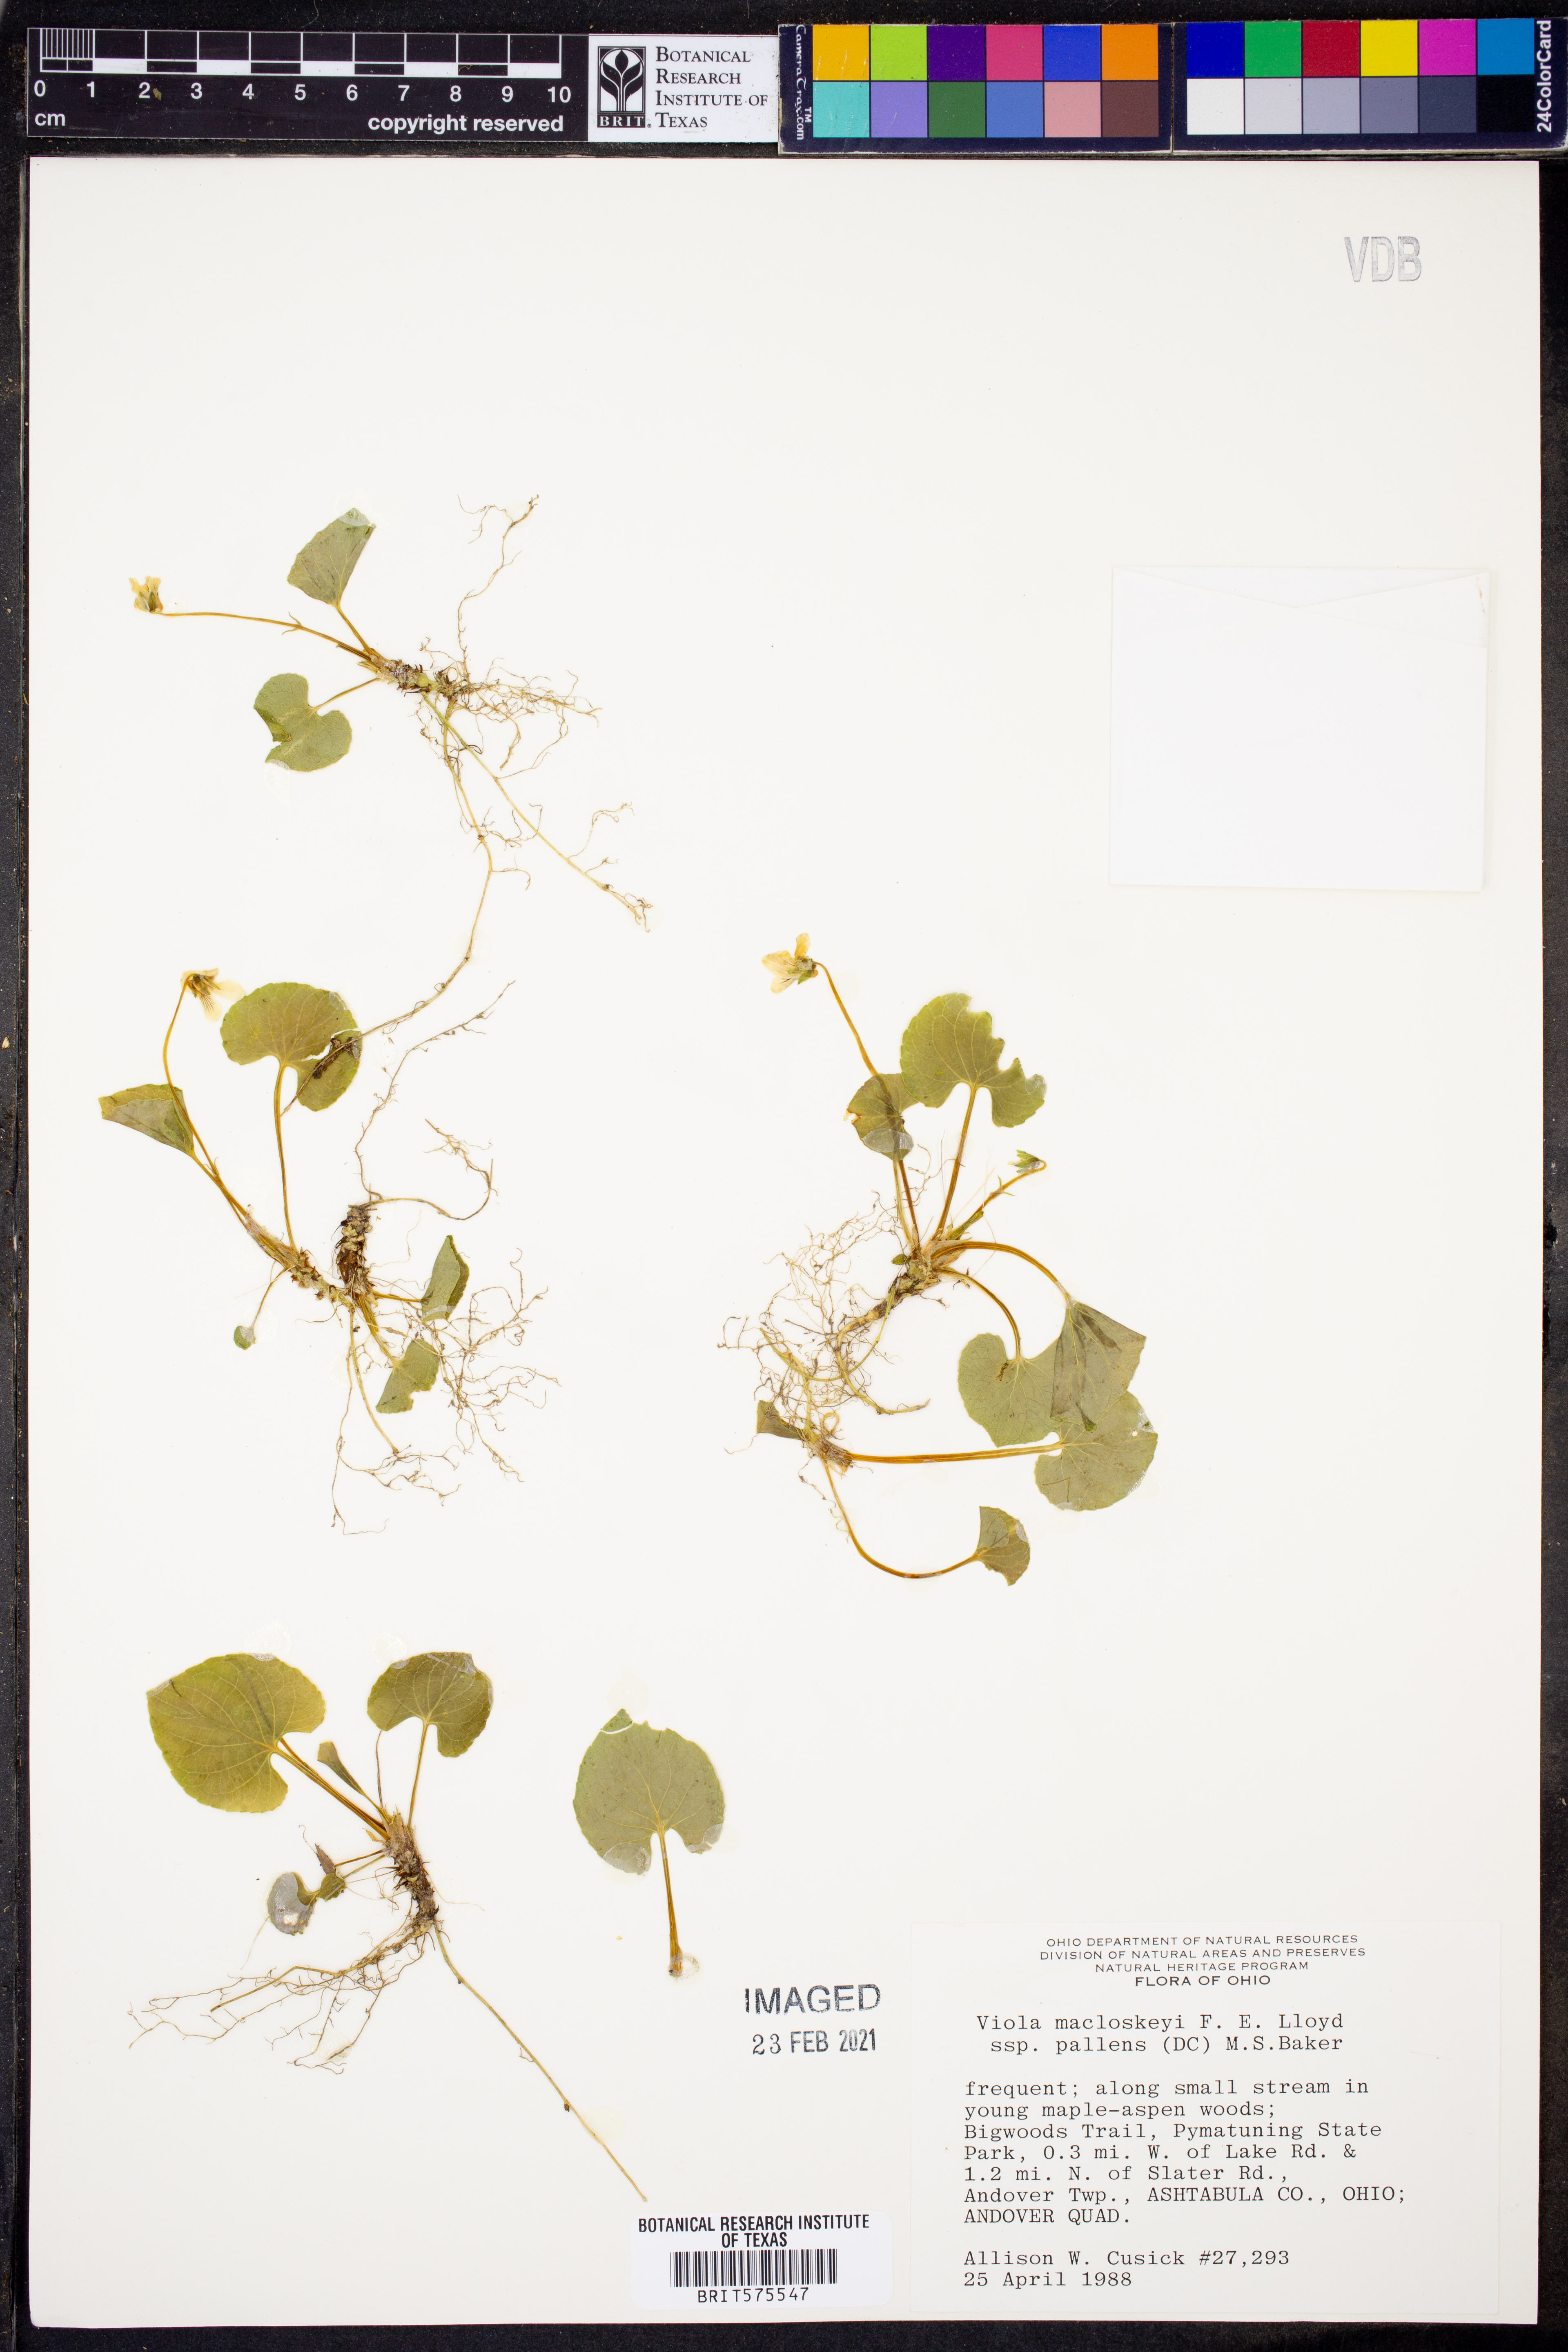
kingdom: Plantae
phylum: Tracheophyta
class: Magnoliopsida
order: Malpighiales
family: Violaceae
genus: Viola
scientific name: Viola palustris
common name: Marsh violet
